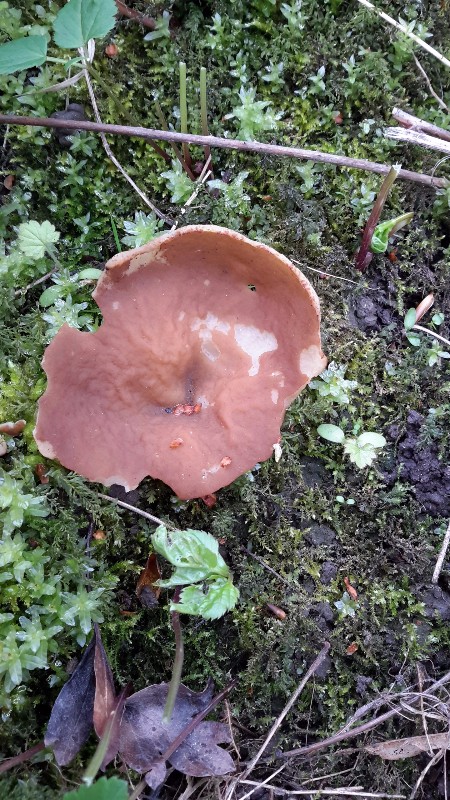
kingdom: Fungi
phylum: Ascomycota
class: Pezizomycetes
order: Pezizales
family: Morchellaceae
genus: Disciotis
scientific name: Disciotis venosa
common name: klor-bægermorkel
